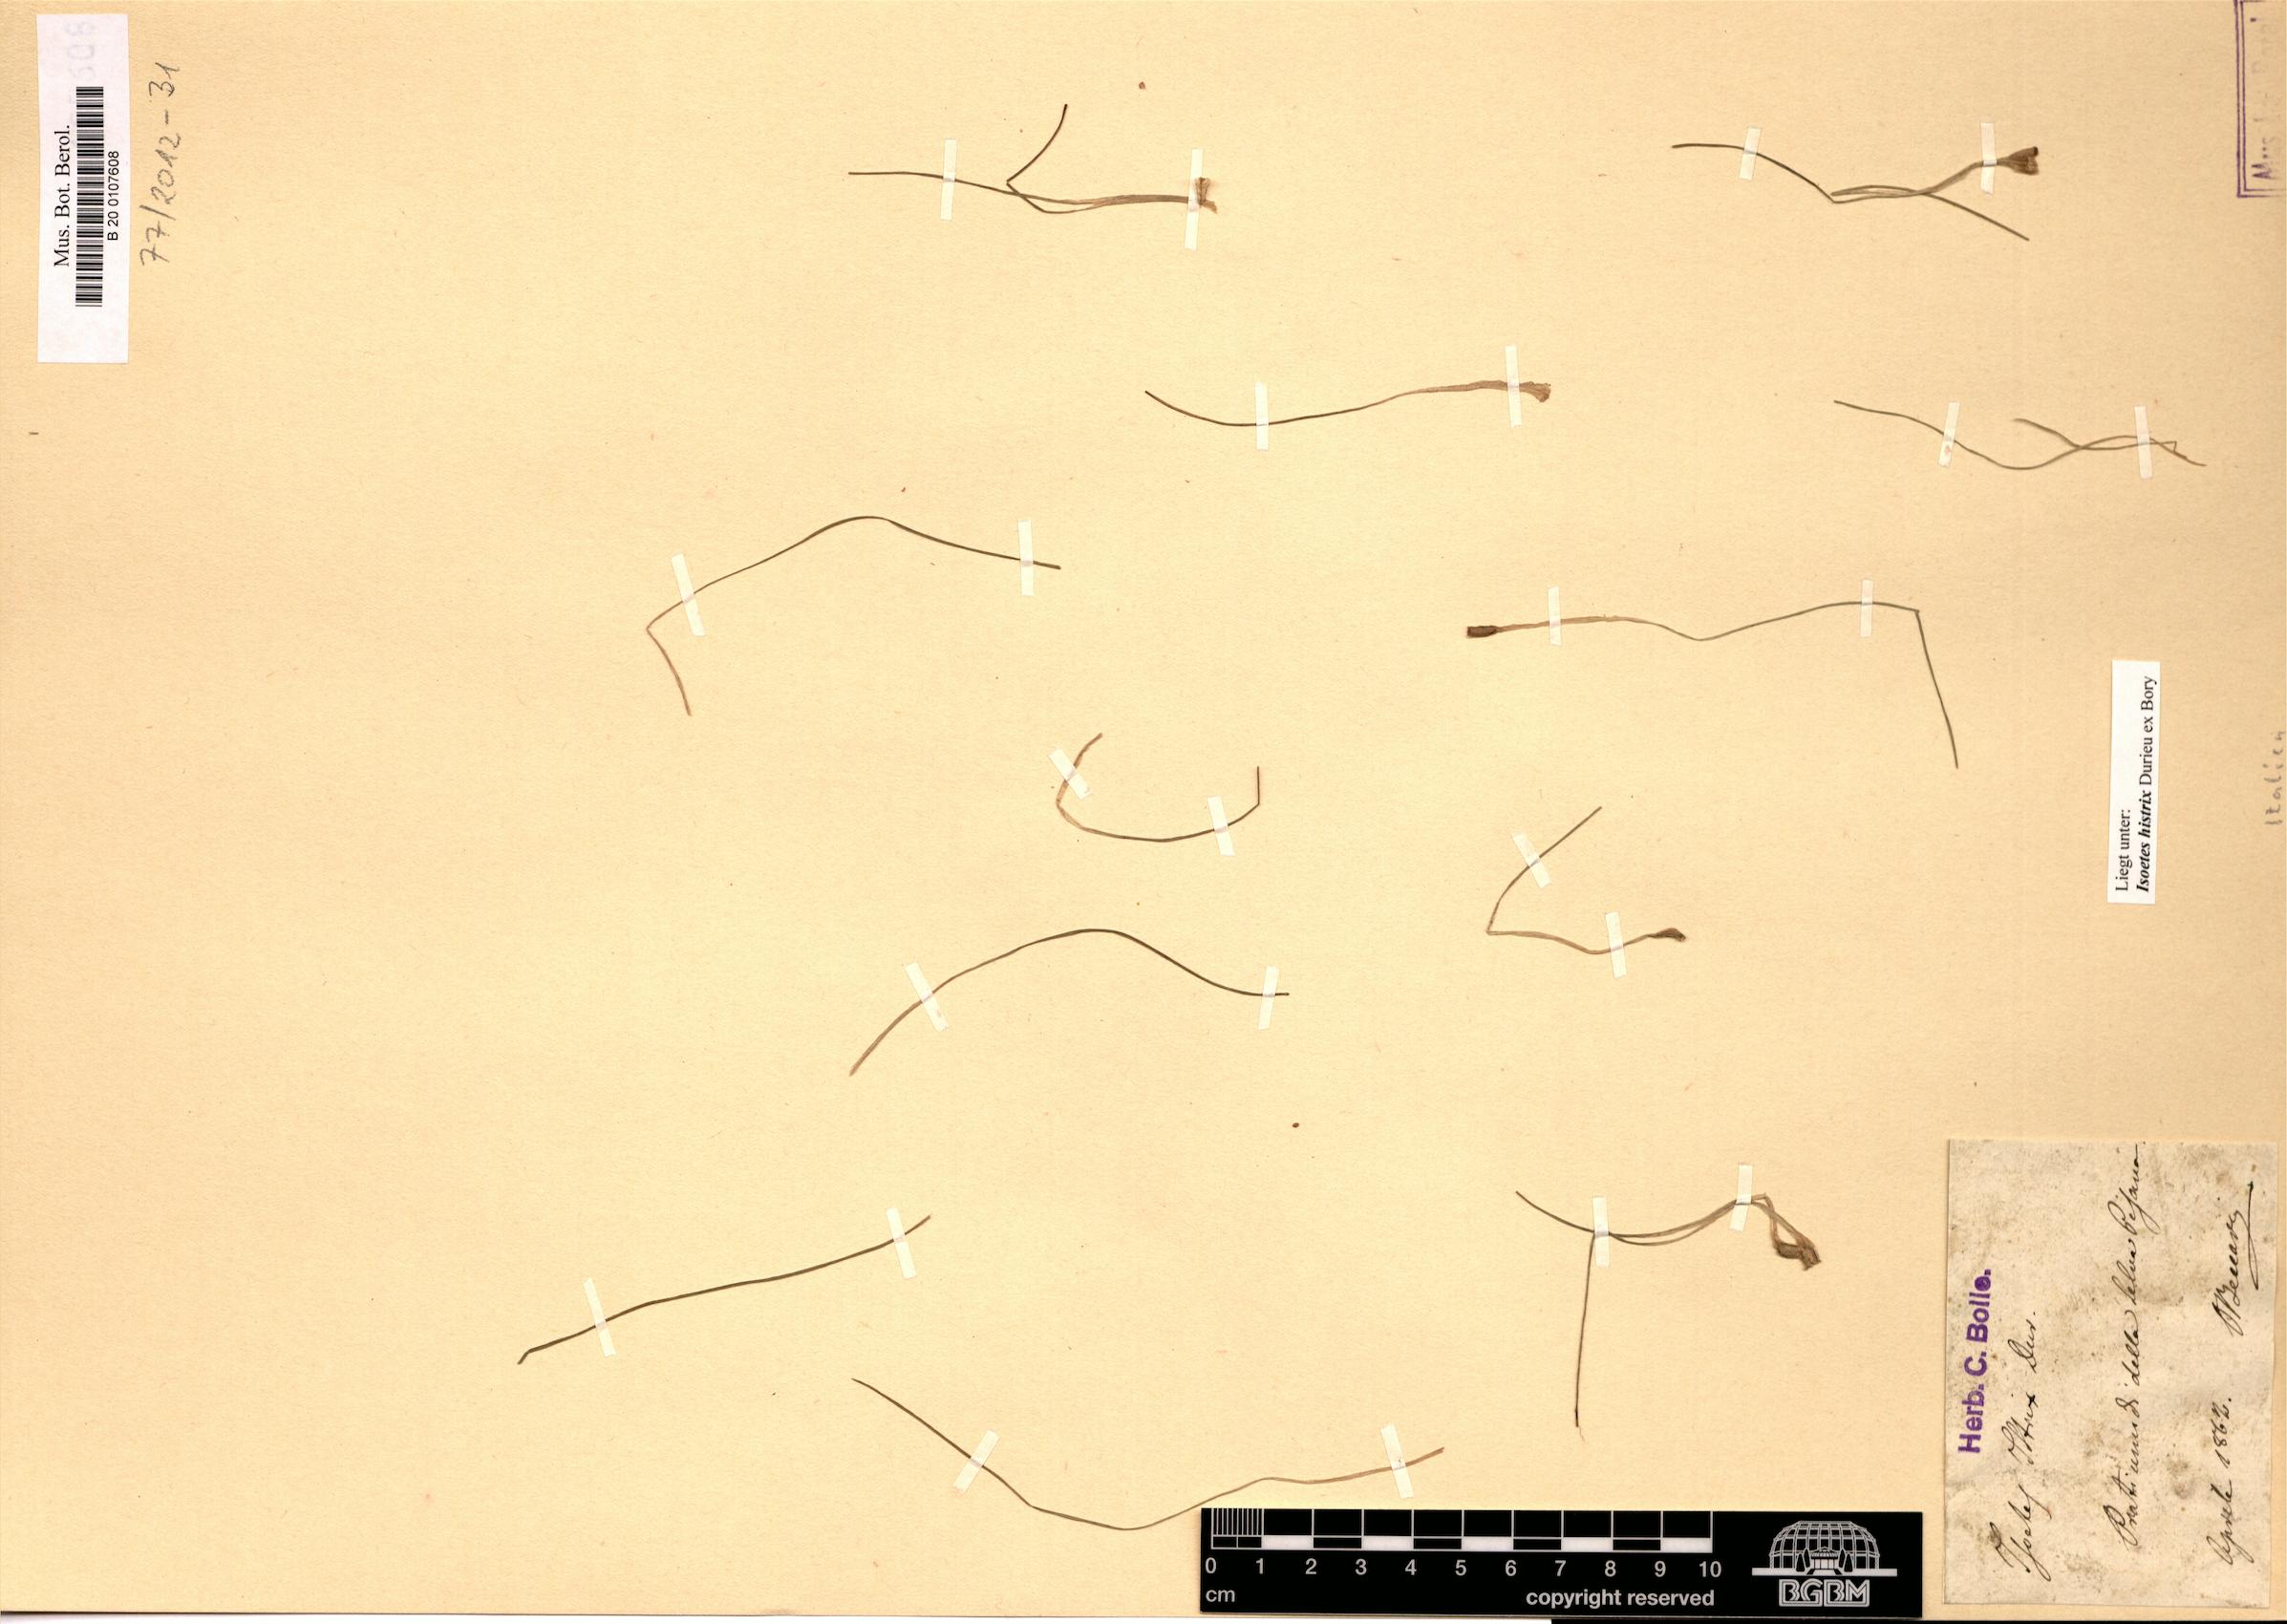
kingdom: Plantae
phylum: Tracheophyta
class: Lycopodiopsida
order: Isoetales
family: Isoetaceae
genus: Isoetes
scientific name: Isoetes histrix
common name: Land quillwort
